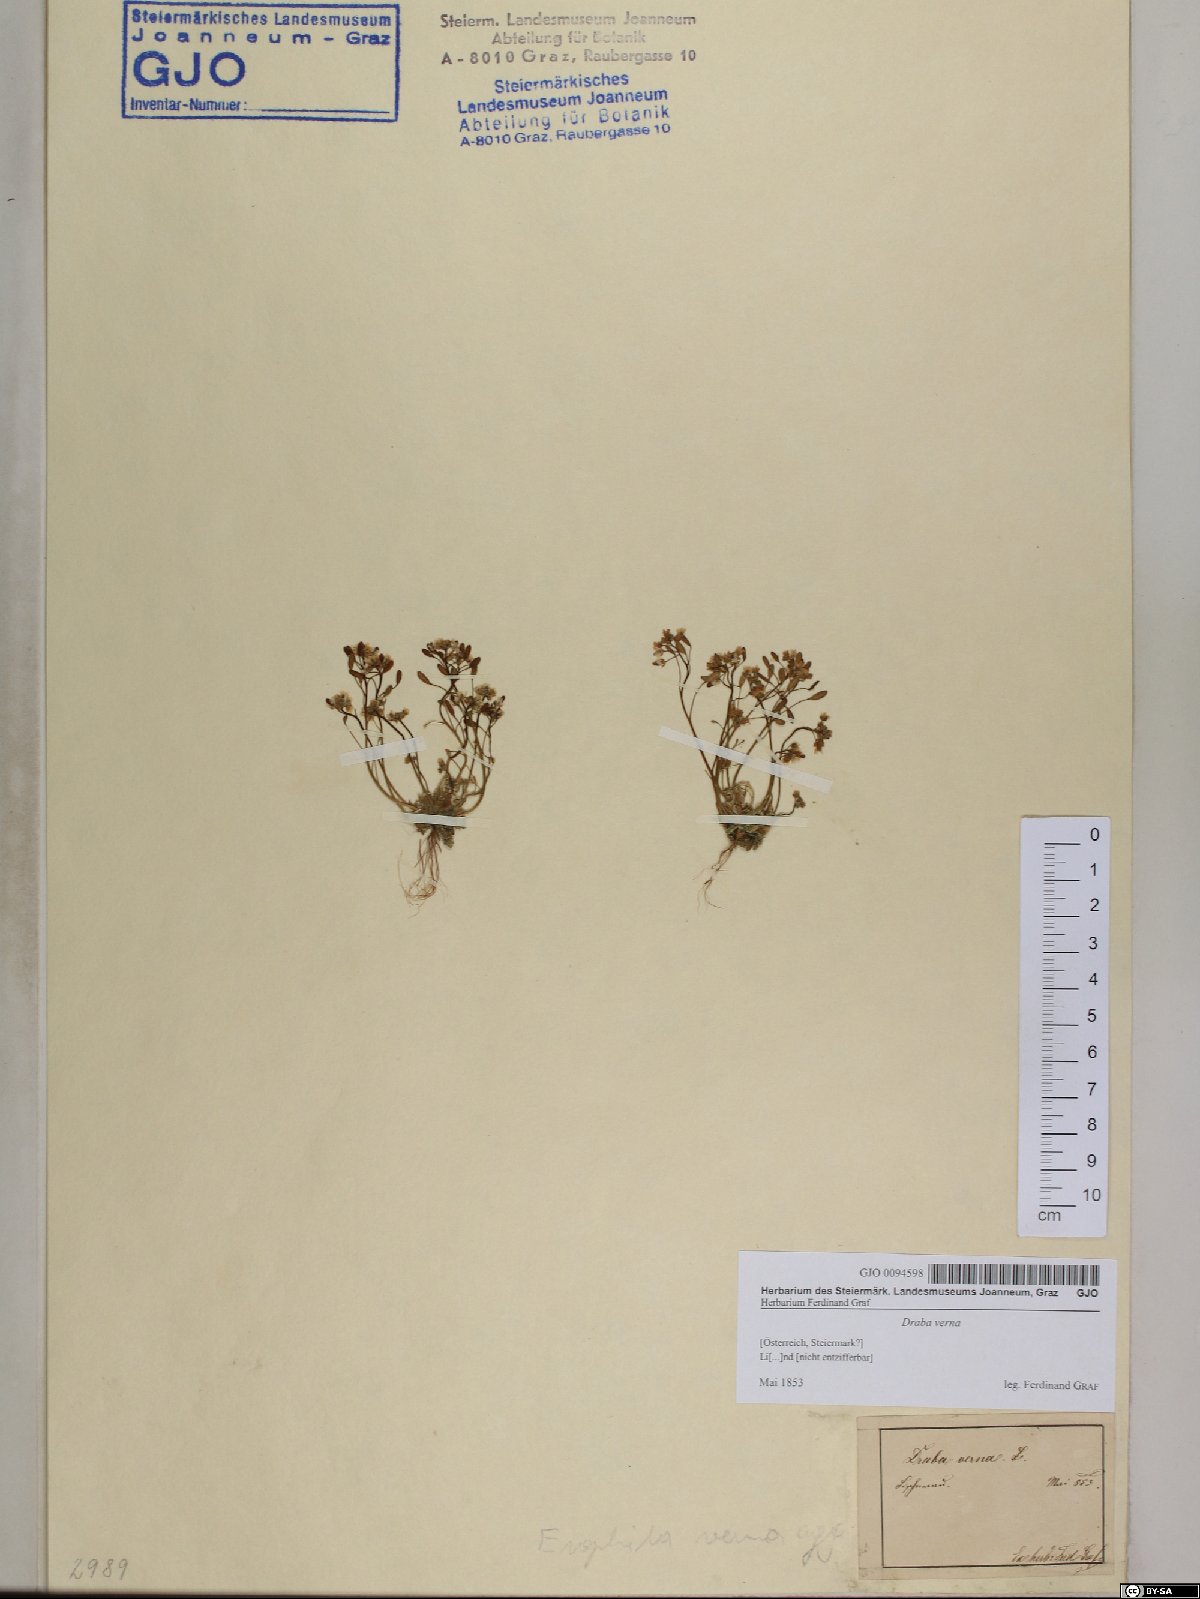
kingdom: Plantae
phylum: Tracheophyta
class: Magnoliopsida
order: Brassicales
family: Brassicaceae
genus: Draba
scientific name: Draba verna
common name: Spring draba
